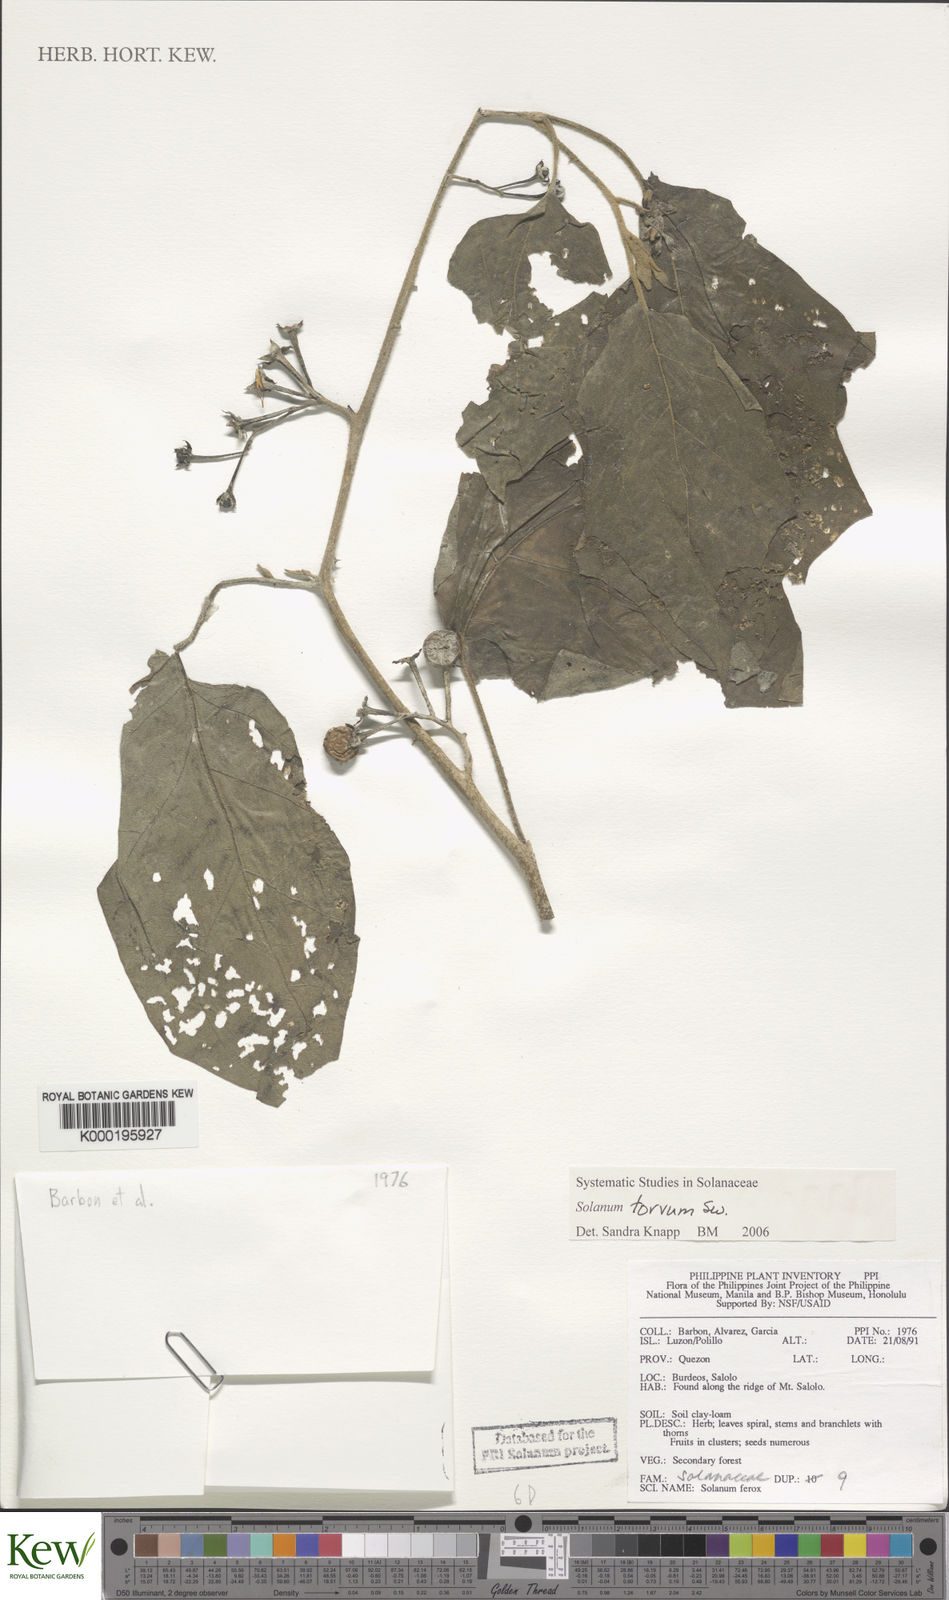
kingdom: Plantae
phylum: Tracheophyta
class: Magnoliopsida
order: Solanales
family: Solanaceae
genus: Solanum
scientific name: Solanum torvum
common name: Turkey berry
